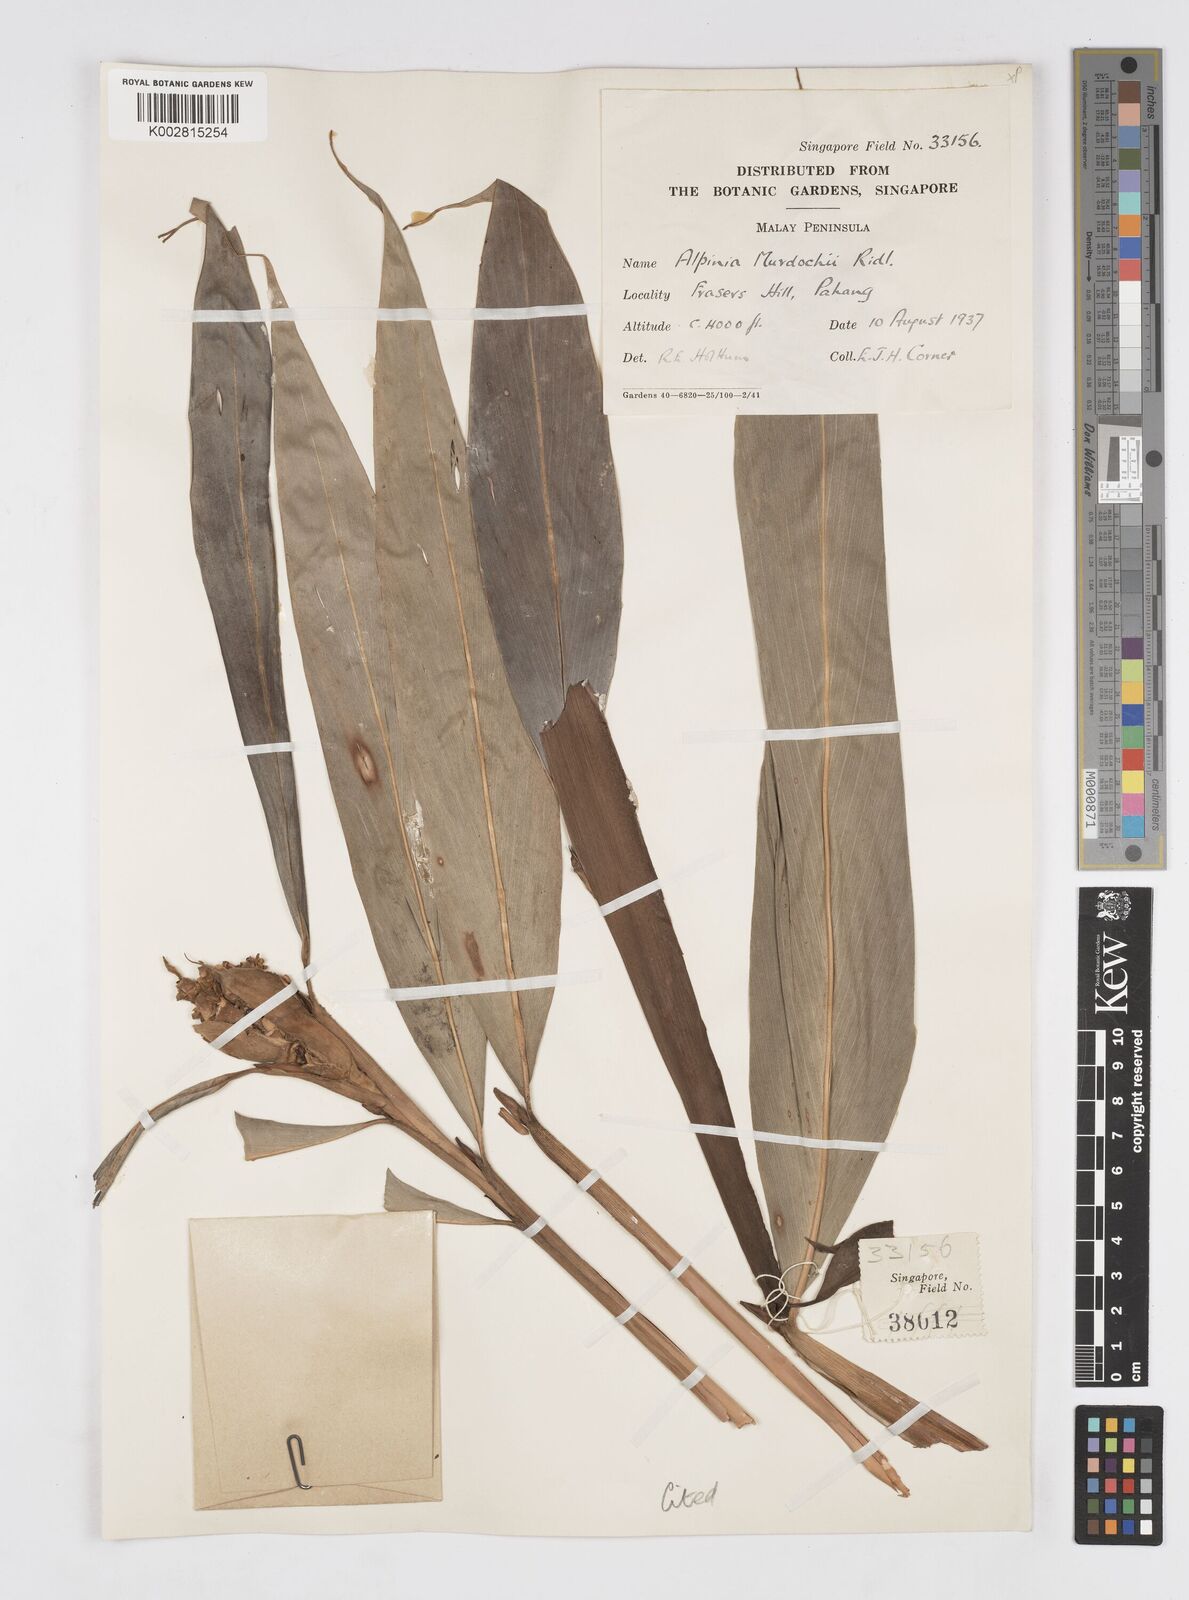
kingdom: Plantae
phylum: Tracheophyta
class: Liliopsida
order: Zingiberales
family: Zingiberaceae
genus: Alpinia
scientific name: Alpinia murdochii
